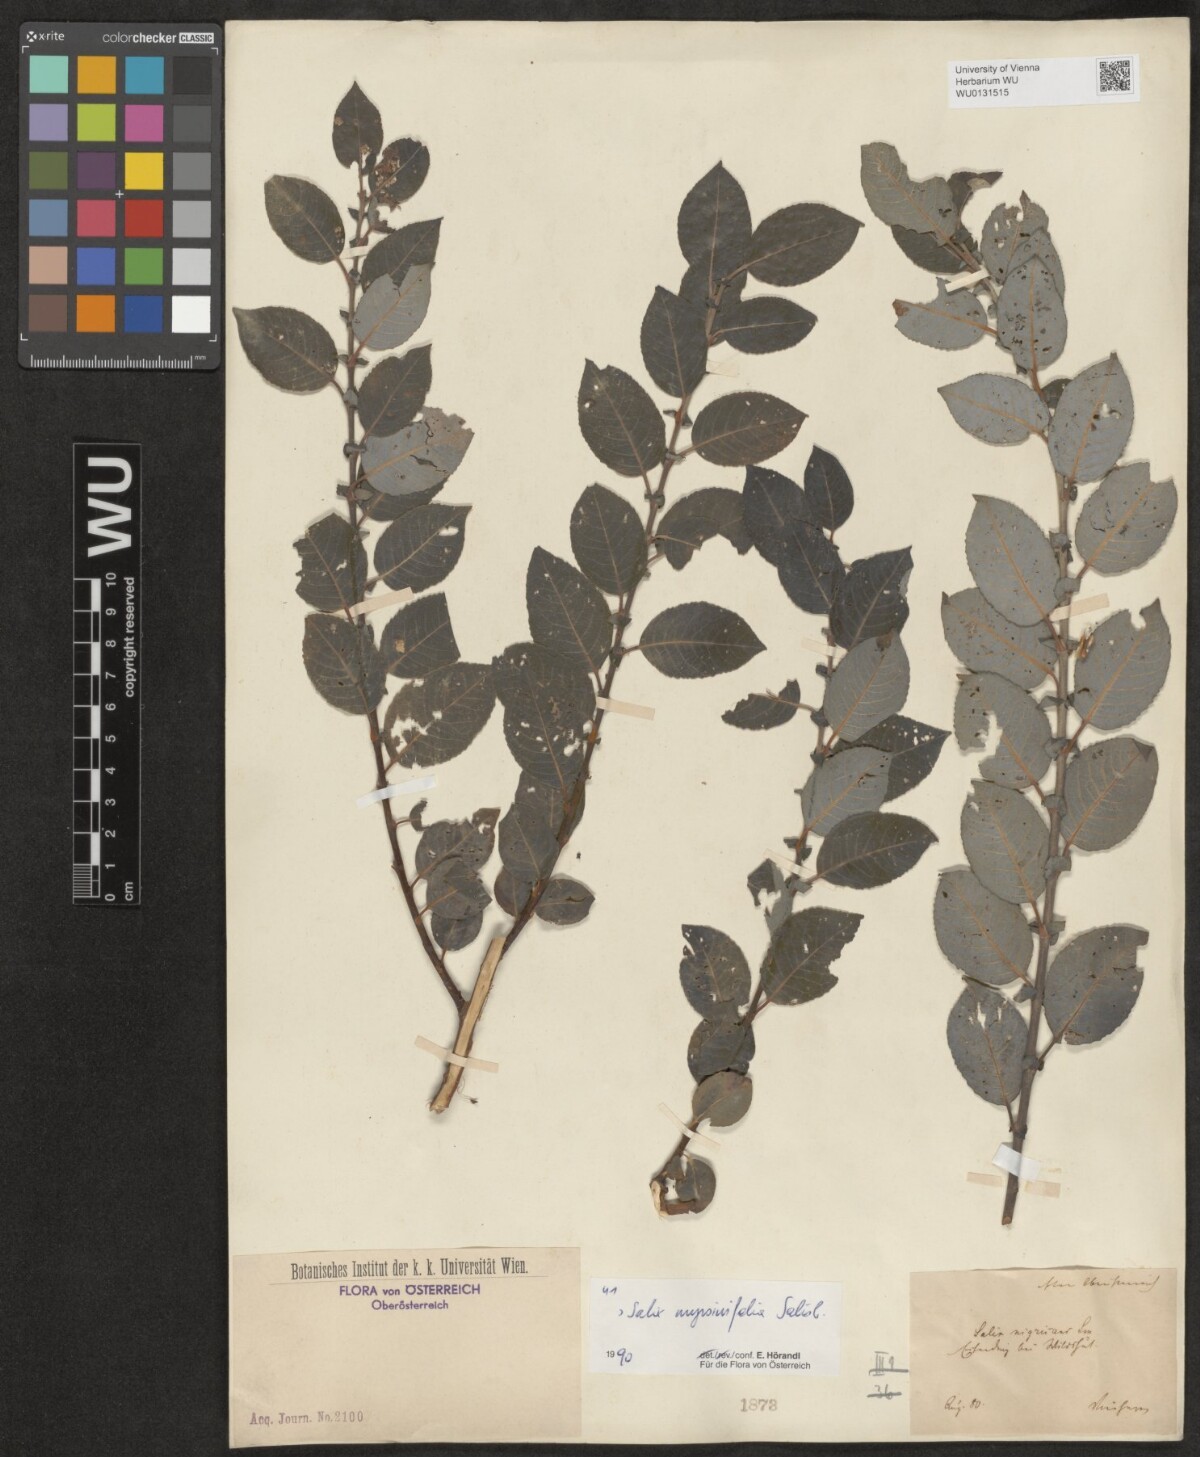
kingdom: Plantae
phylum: Tracheophyta
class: Magnoliopsida
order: Malpighiales
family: Salicaceae
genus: Salix
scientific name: Salix myrsinifolia
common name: Dark-leaved willow
